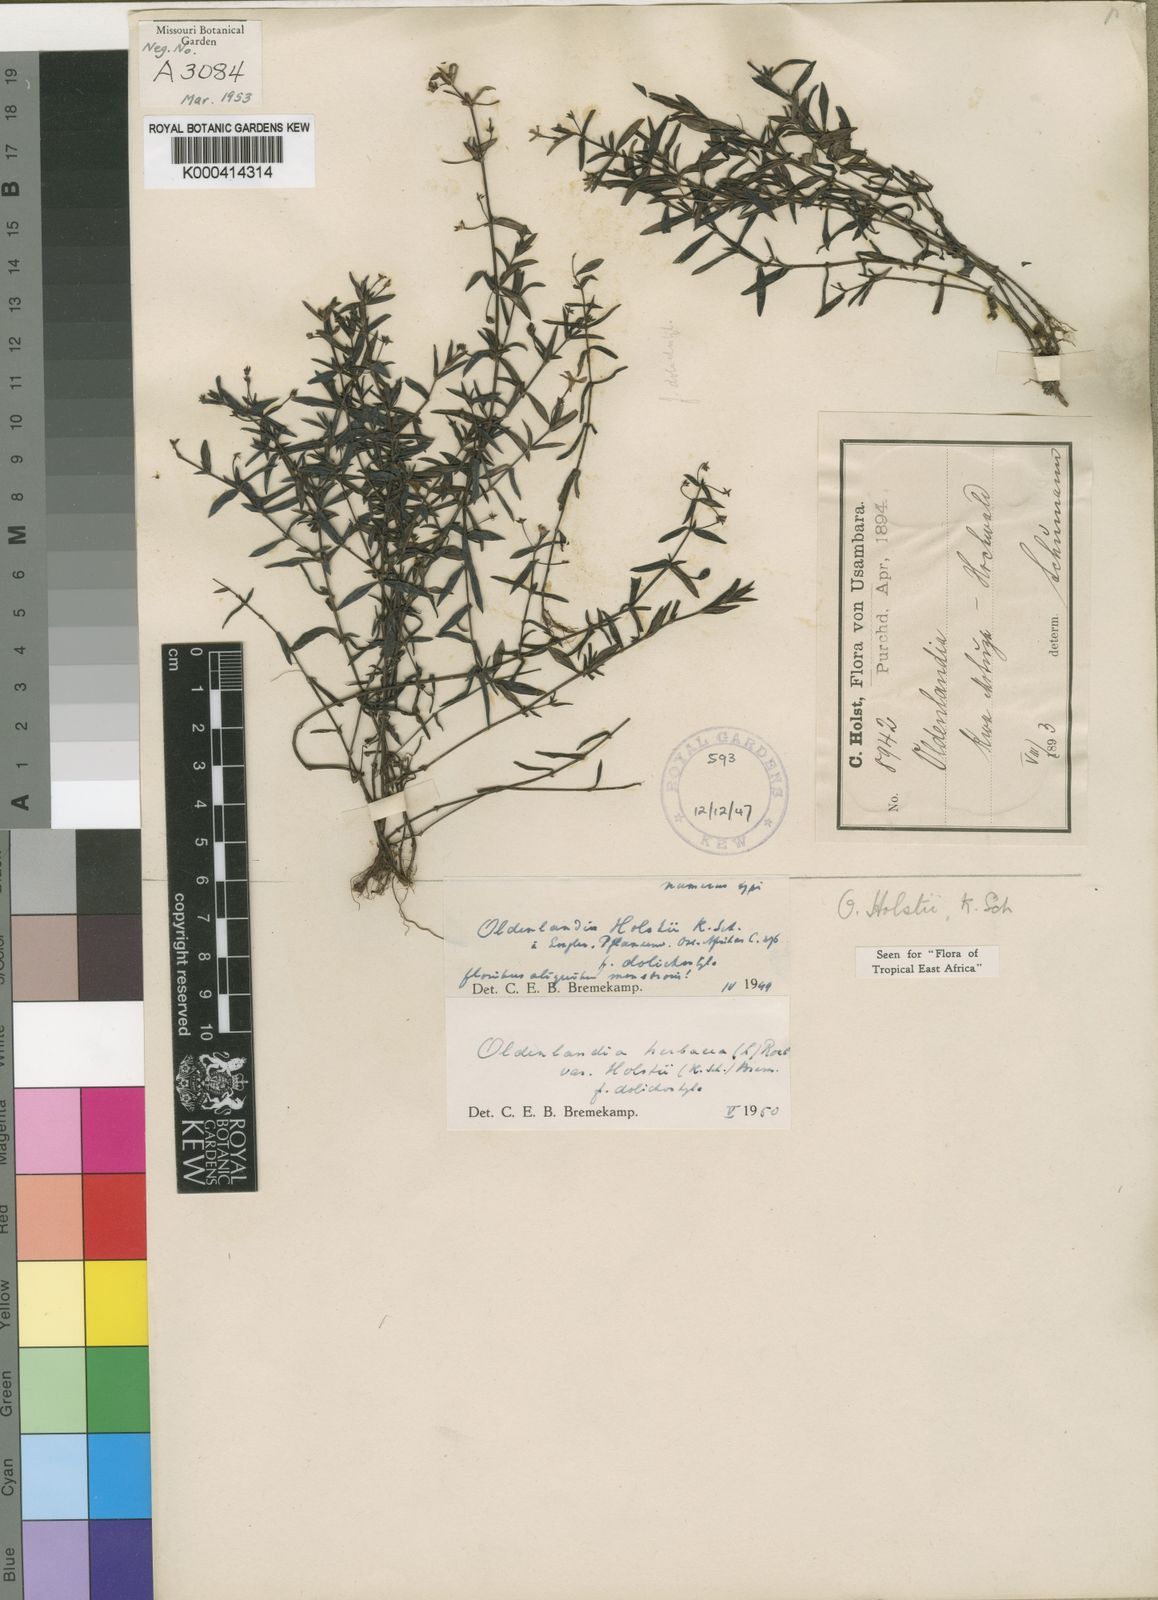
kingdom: Plantae
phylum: Tracheophyta
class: Magnoliopsida
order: Gentianales
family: Rubiaceae
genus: Oldenlandia
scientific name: Oldenlandia herbacea
